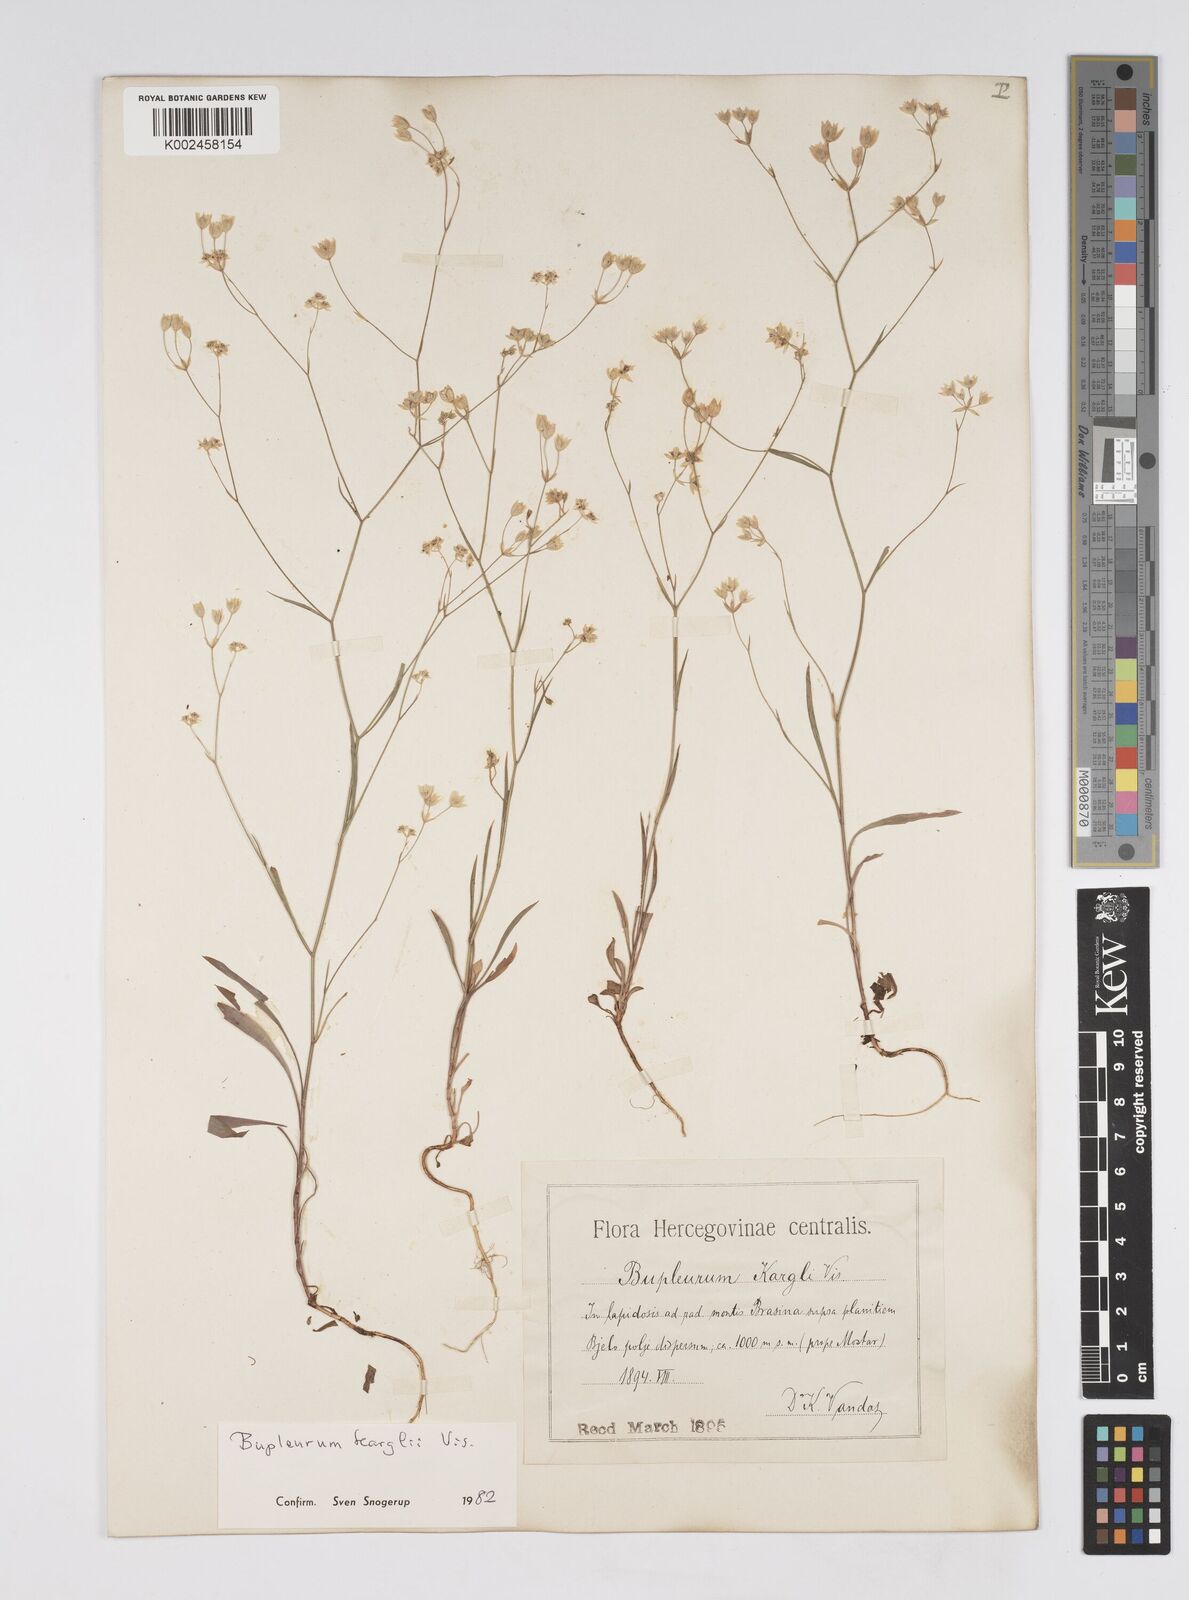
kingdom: Plantae
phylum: Tracheophyta
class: Magnoliopsida
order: Apiales
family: Apiaceae
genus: Bupleurum
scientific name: Bupleurum karglii
